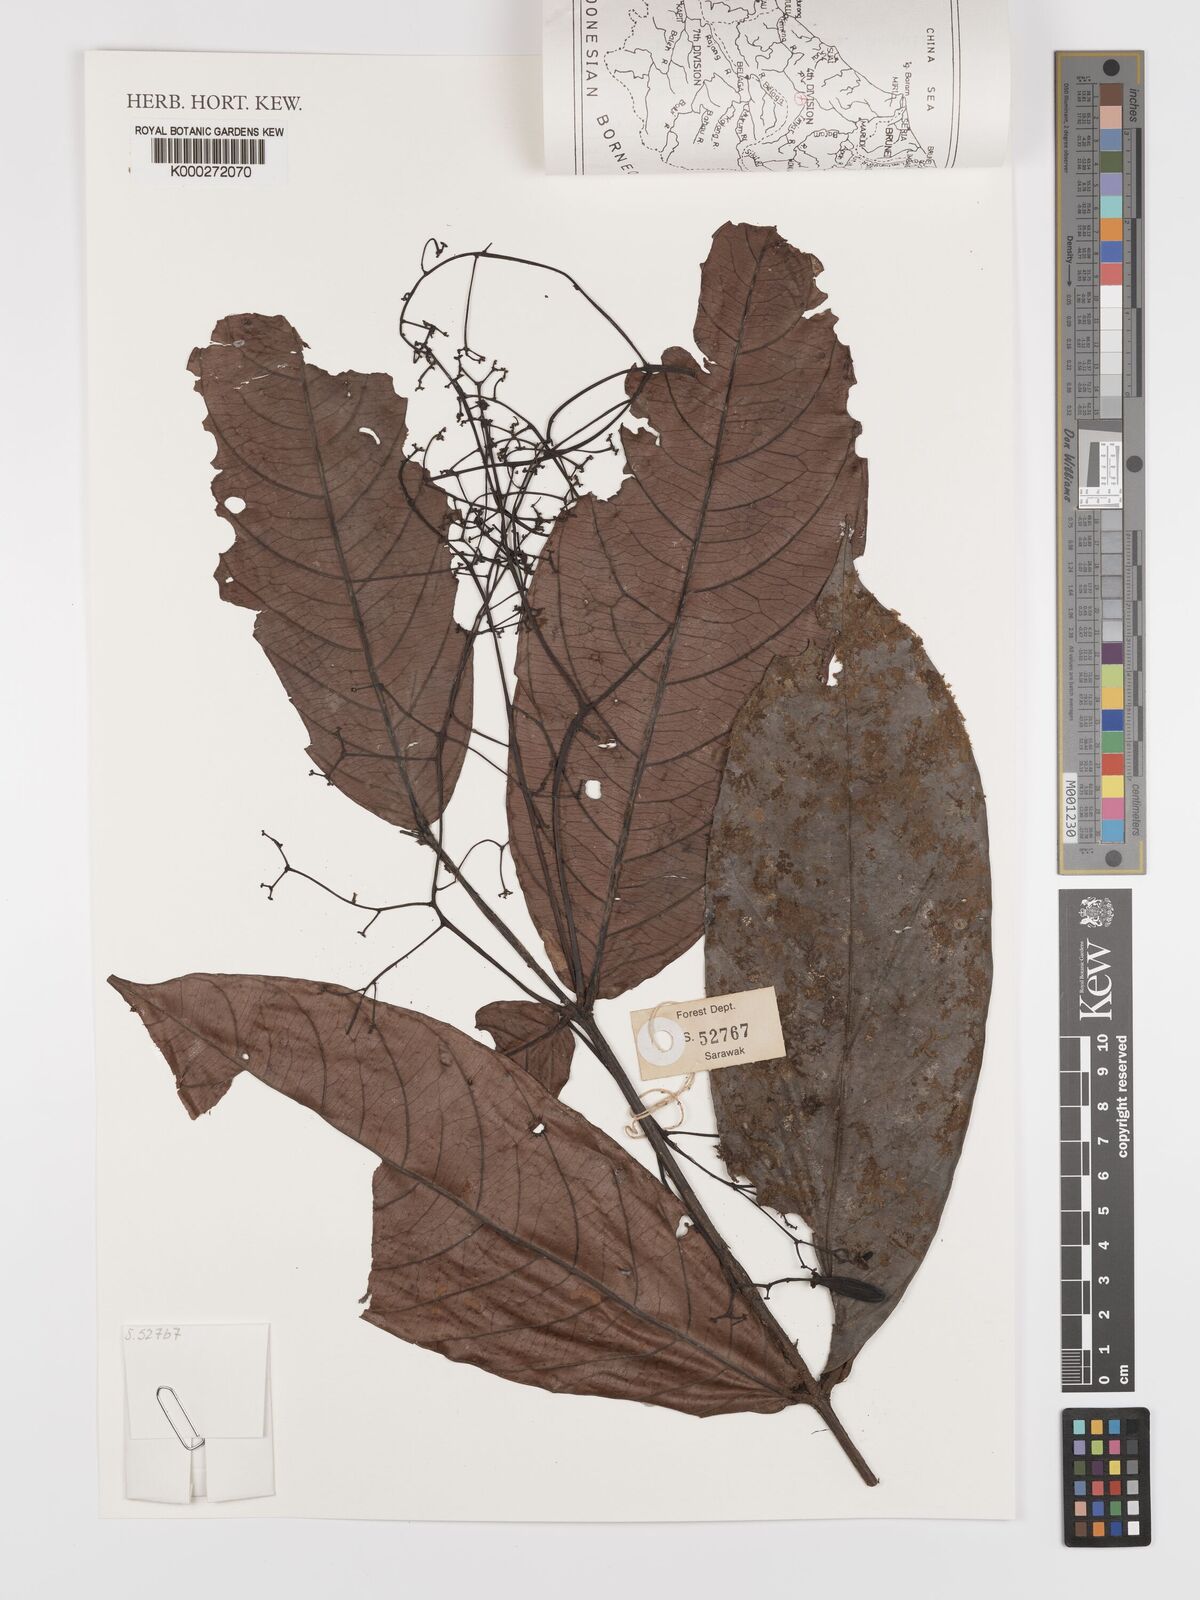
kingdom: Plantae
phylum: Tracheophyta
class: Magnoliopsida
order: Celastrales
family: Celastraceae
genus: Lophopetalum
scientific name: Lophopetalum sessilifolium
